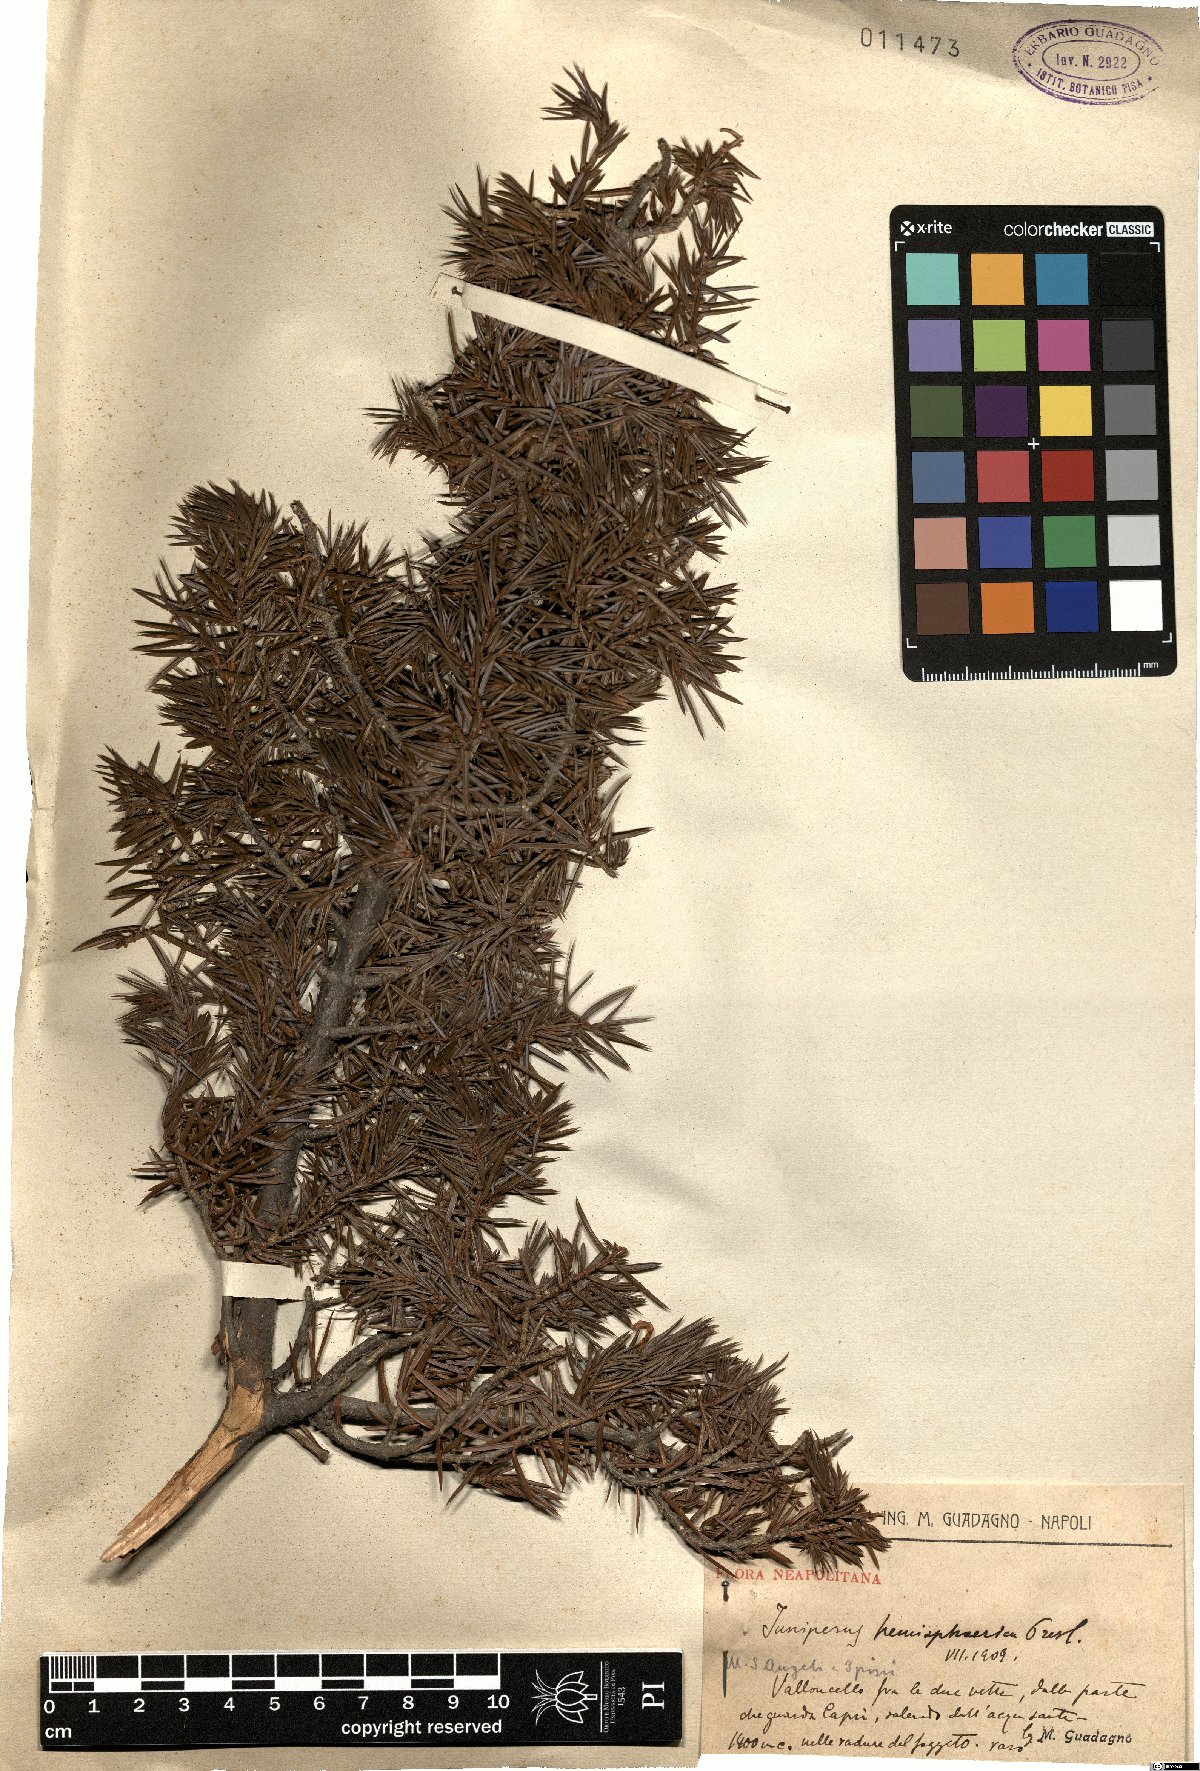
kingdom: Plantae
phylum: Tracheophyta
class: Pinopsida
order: Pinales
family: Cupressaceae
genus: Juniperus
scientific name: Juniperus communis
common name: Common juniper
